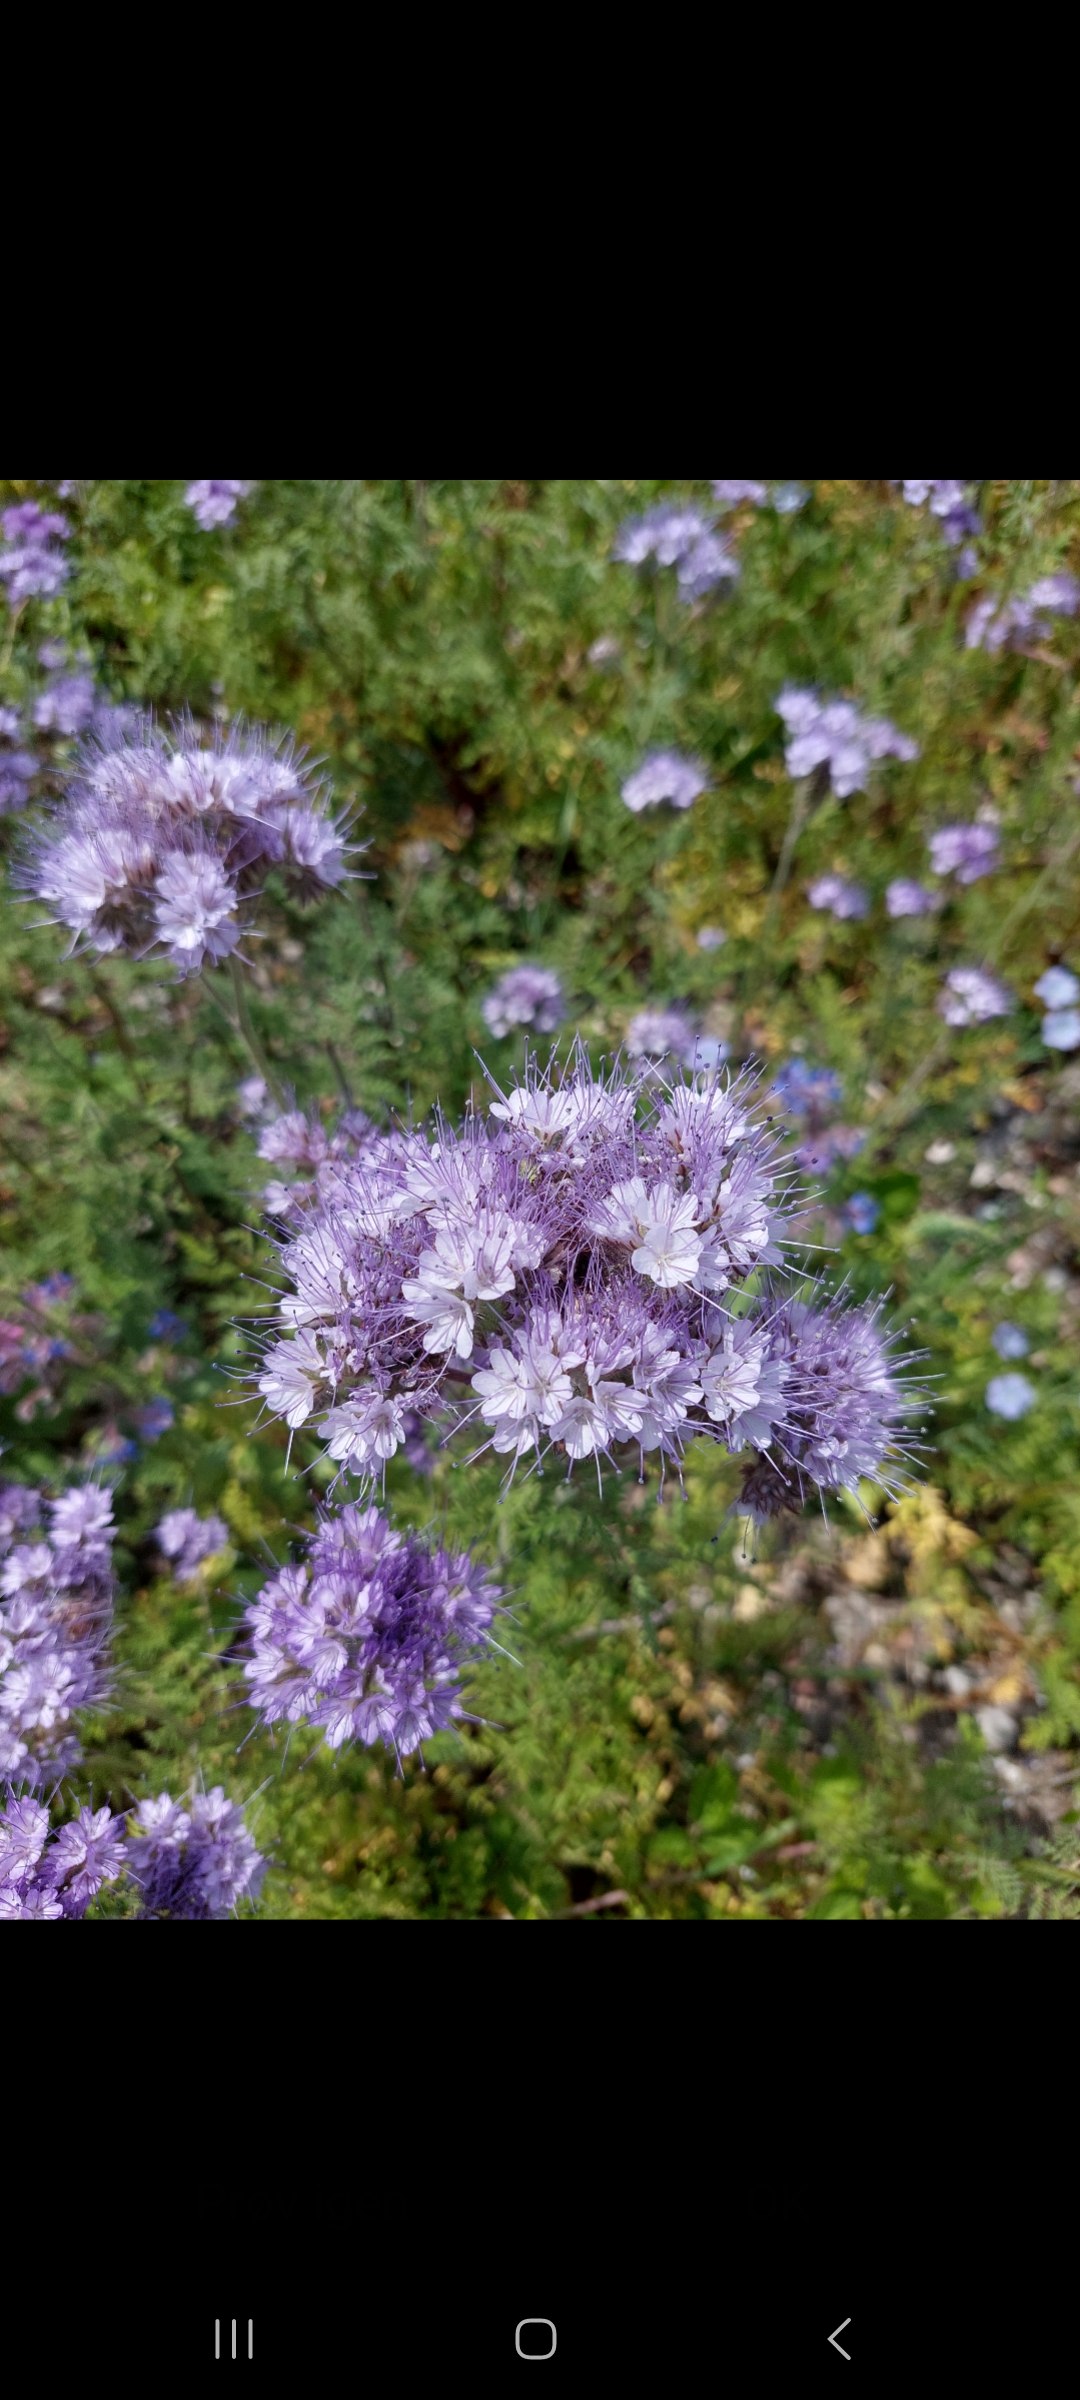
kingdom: Plantae
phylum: Tracheophyta
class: Magnoliopsida
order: Boraginales
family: Hydrophyllaceae
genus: Phacelia
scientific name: Phacelia tanacetifolia
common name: Honningurt
